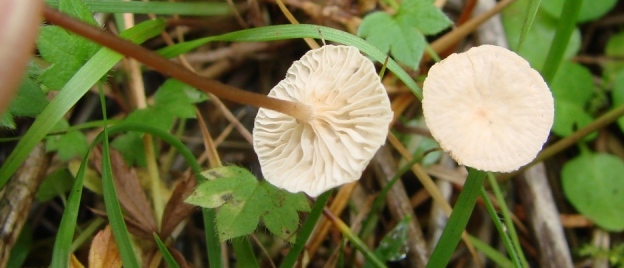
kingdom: Fungi
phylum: Basidiomycota
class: Agaricomycetes
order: Agaricales
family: Omphalotaceae
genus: Collybiopsis
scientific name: Collybiopsis vaillantii
